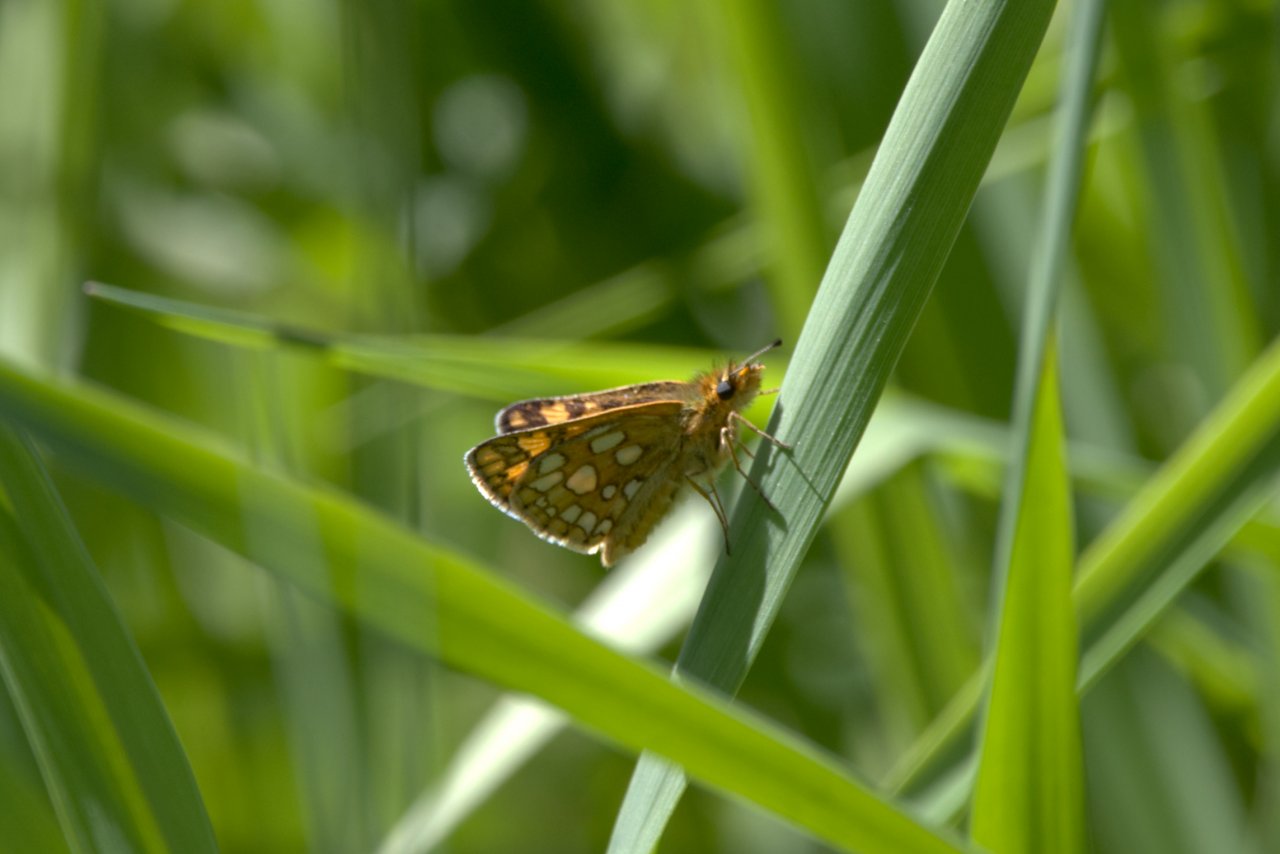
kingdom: Animalia
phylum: Arthropoda
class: Insecta
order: Lepidoptera
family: Hesperiidae
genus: Carterocephalus
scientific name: Carterocephalus palaemon
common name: Chequered Skipper
